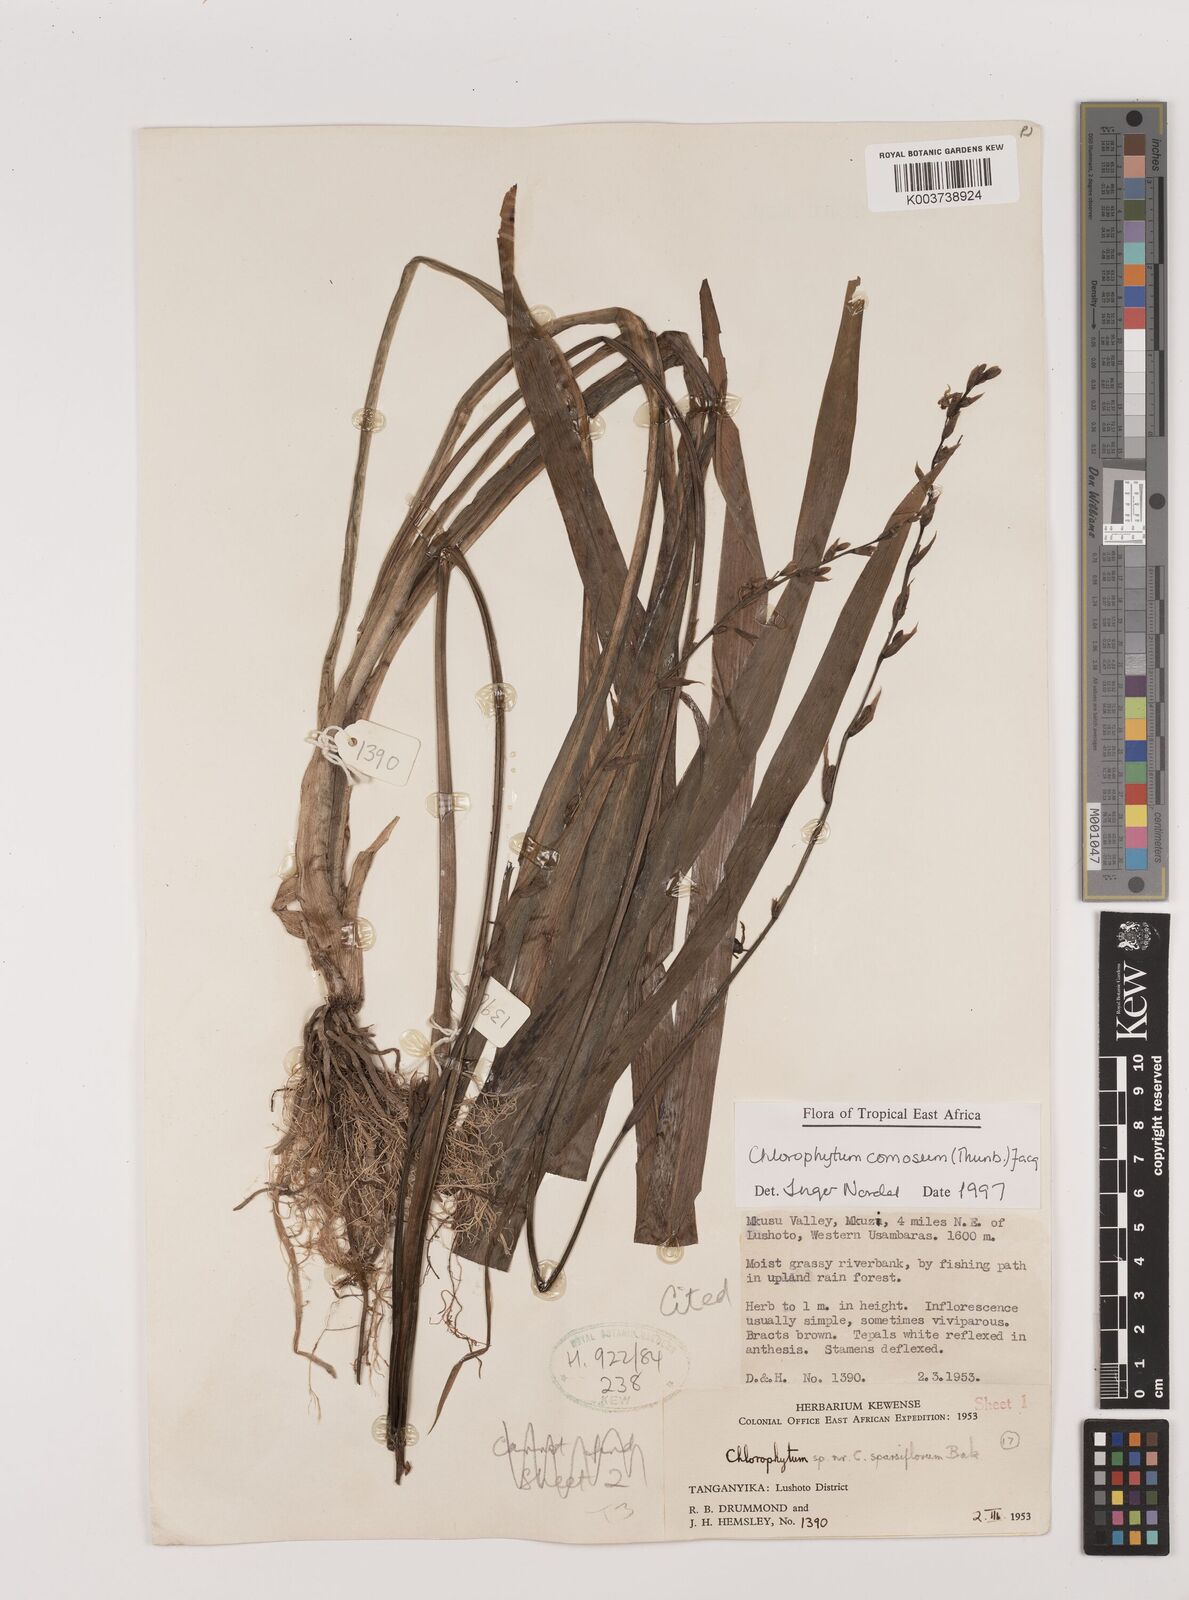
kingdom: Plantae
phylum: Tracheophyta
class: Liliopsida
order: Asparagales
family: Asparagaceae
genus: Chlorophytum
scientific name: Chlorophytum comosum
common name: Spider plant
